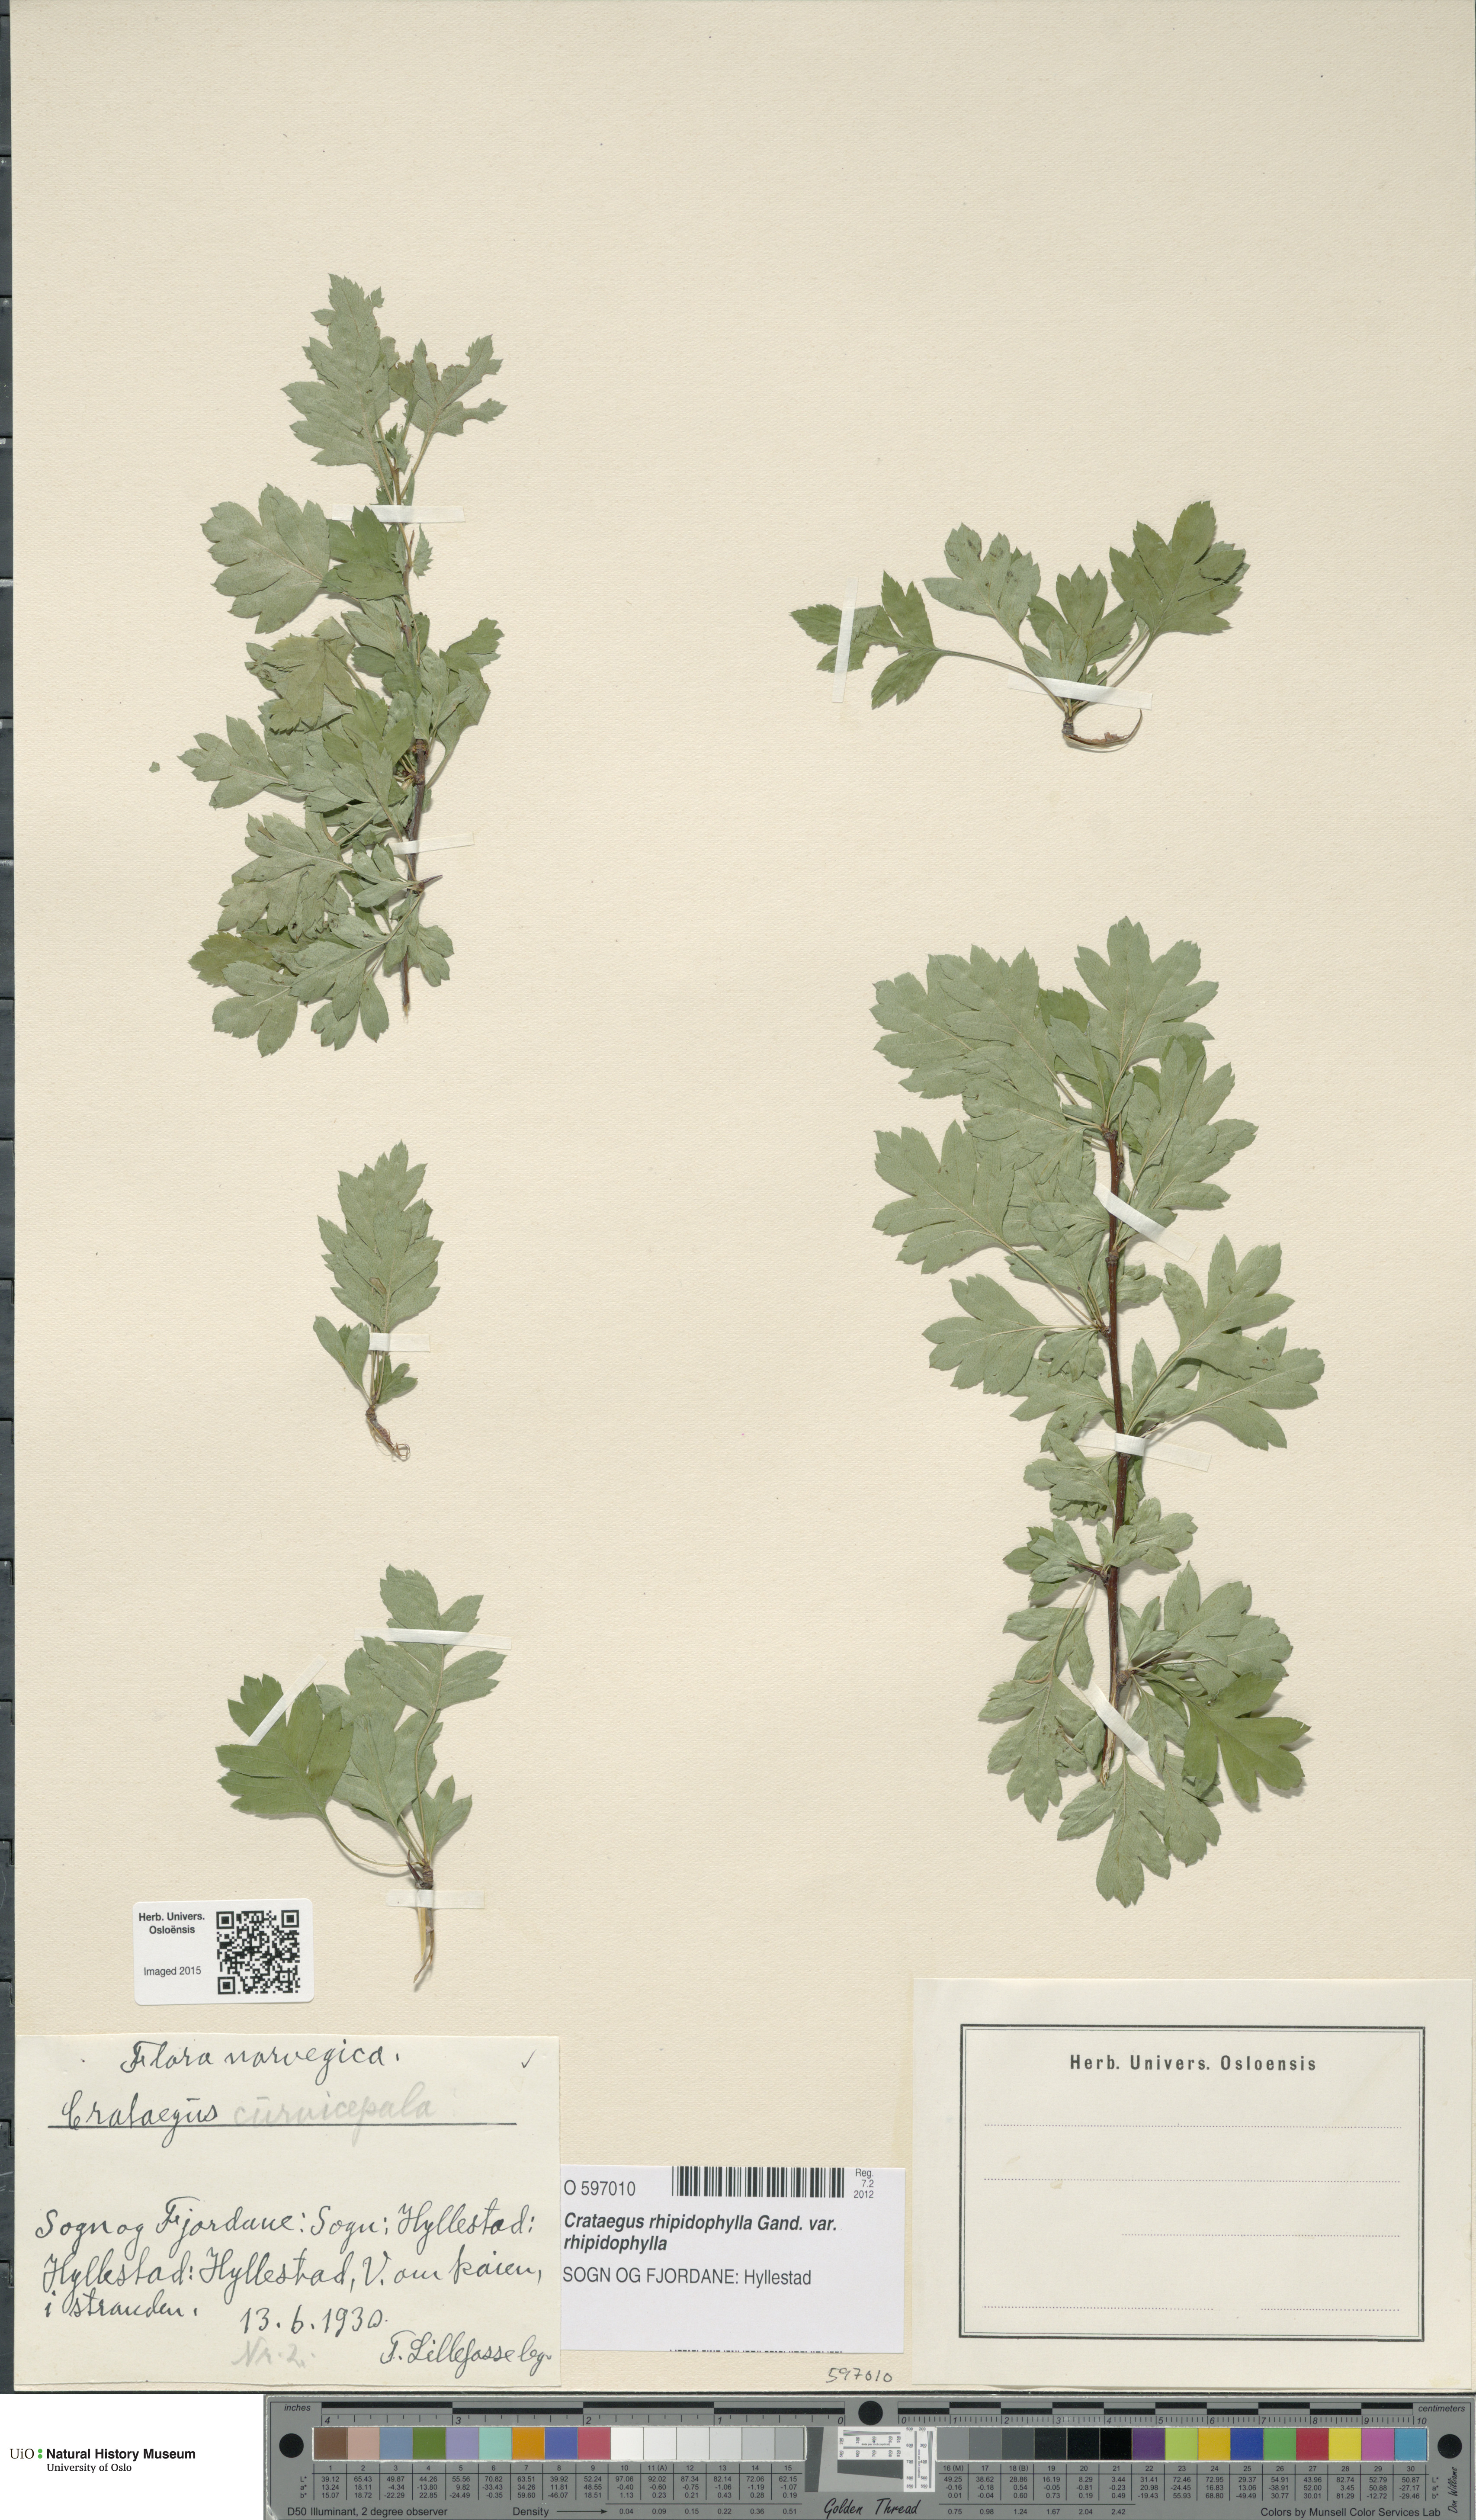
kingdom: Plantae
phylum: Tracheophyta
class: Magnoliopsida
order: Rosales
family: Rosaceae
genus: Crataegus
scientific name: Crataegus rhipidophylla
